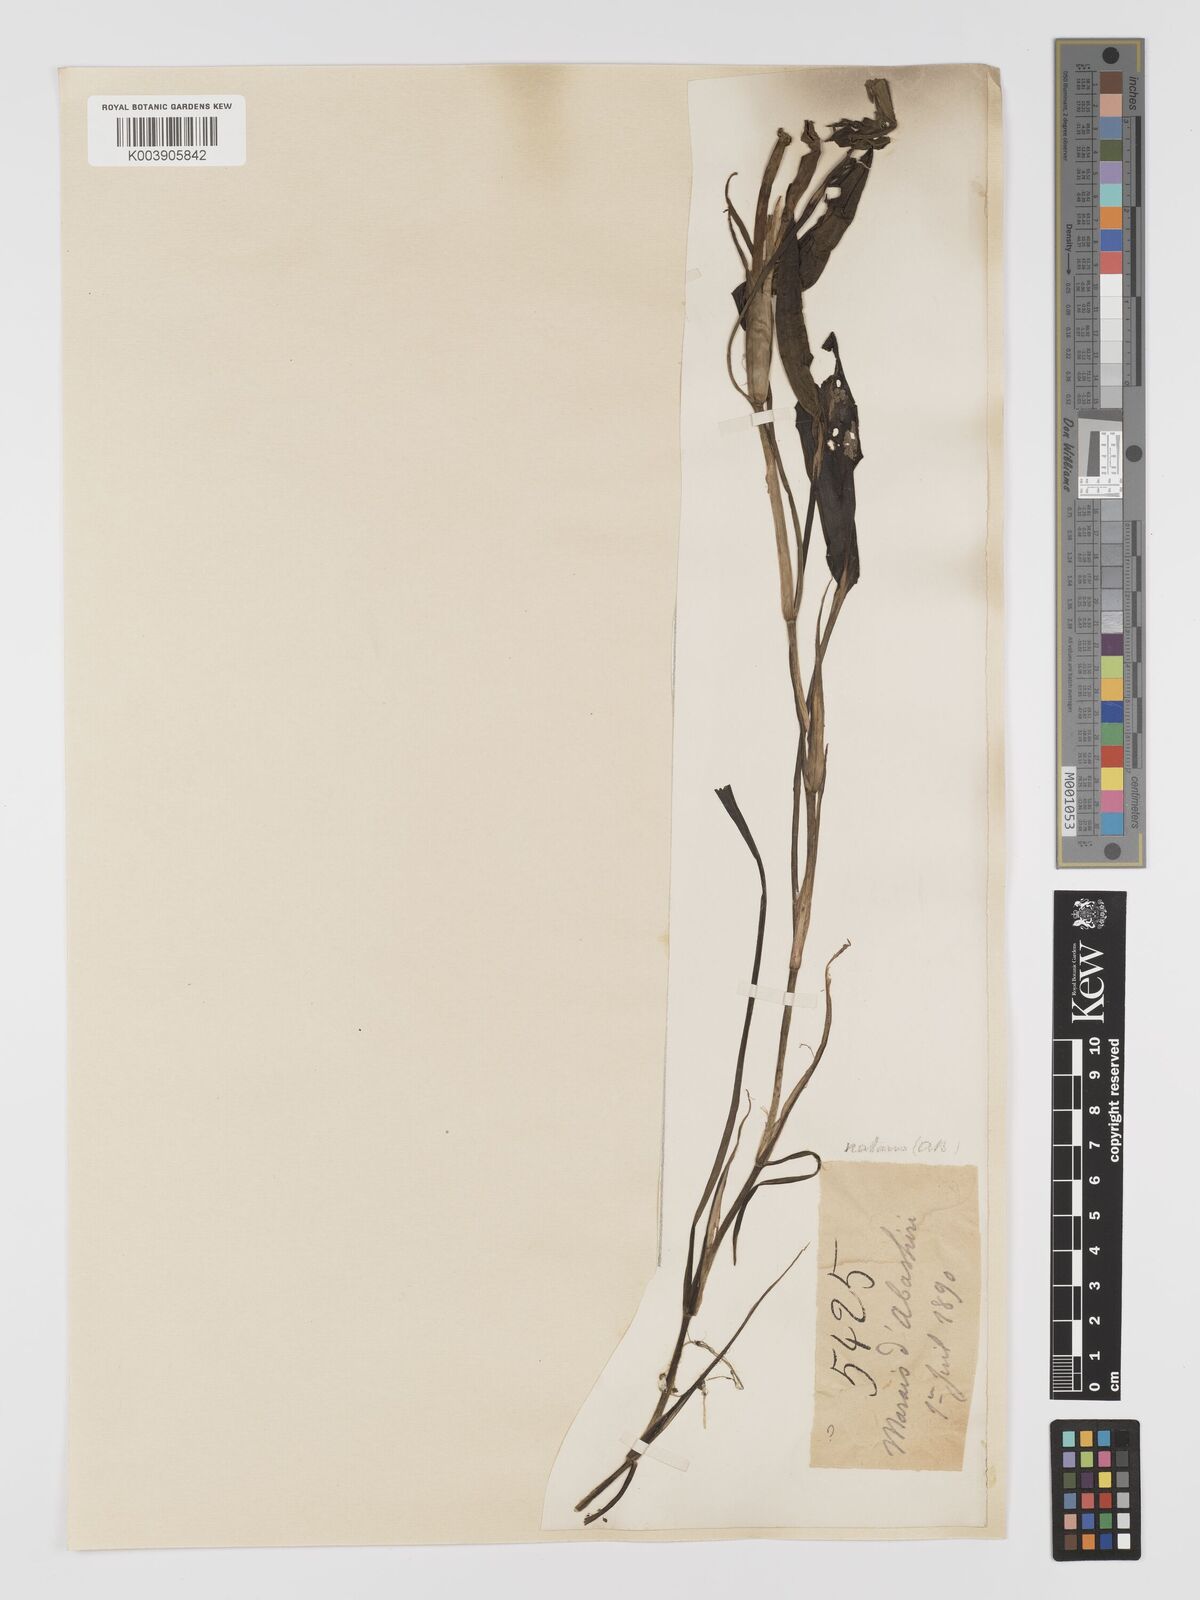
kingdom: Plantae
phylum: Tracheophyta
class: Liliopsida
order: Alismatales
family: Potamogetonaceae
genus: Potamogeton
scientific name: Potamogeton natans
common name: Broad-leaved pondweed
